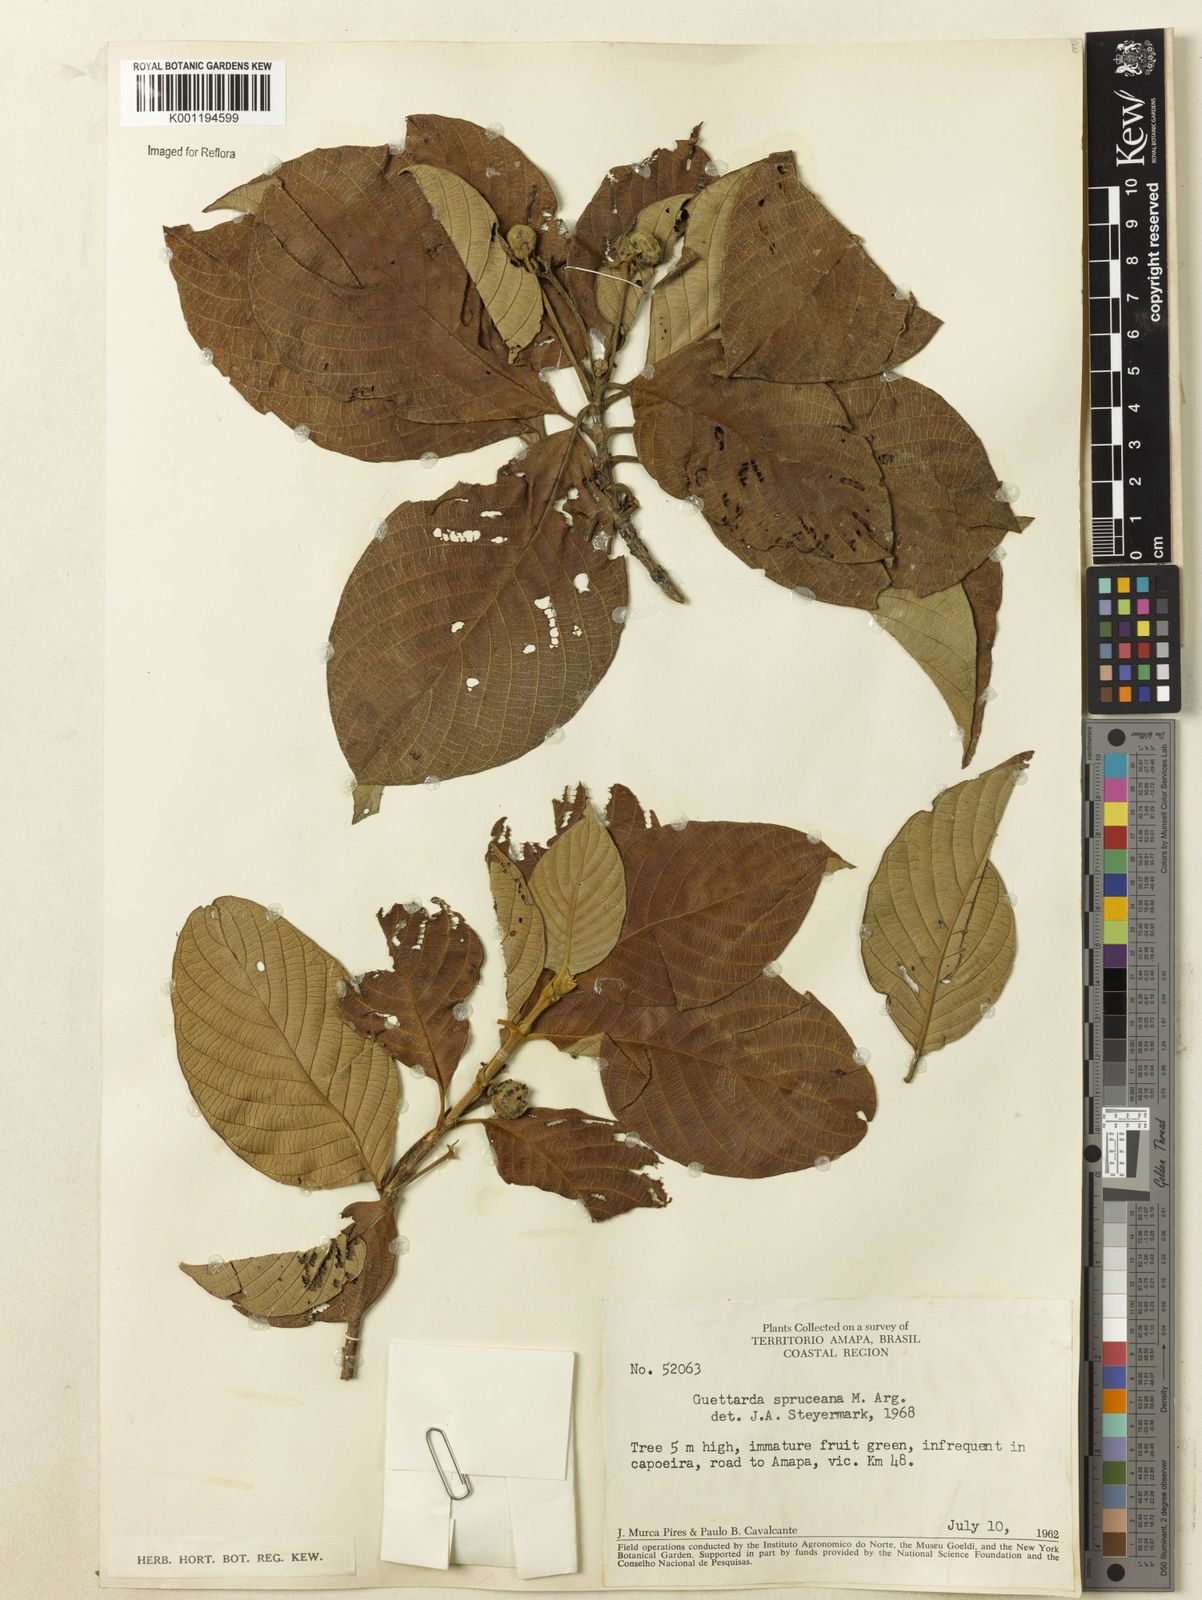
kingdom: Plantae
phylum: Tracheophyta
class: Magnoliopsida
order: Gentianales
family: Rubiaceae
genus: Guettarda
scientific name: Guettarda
